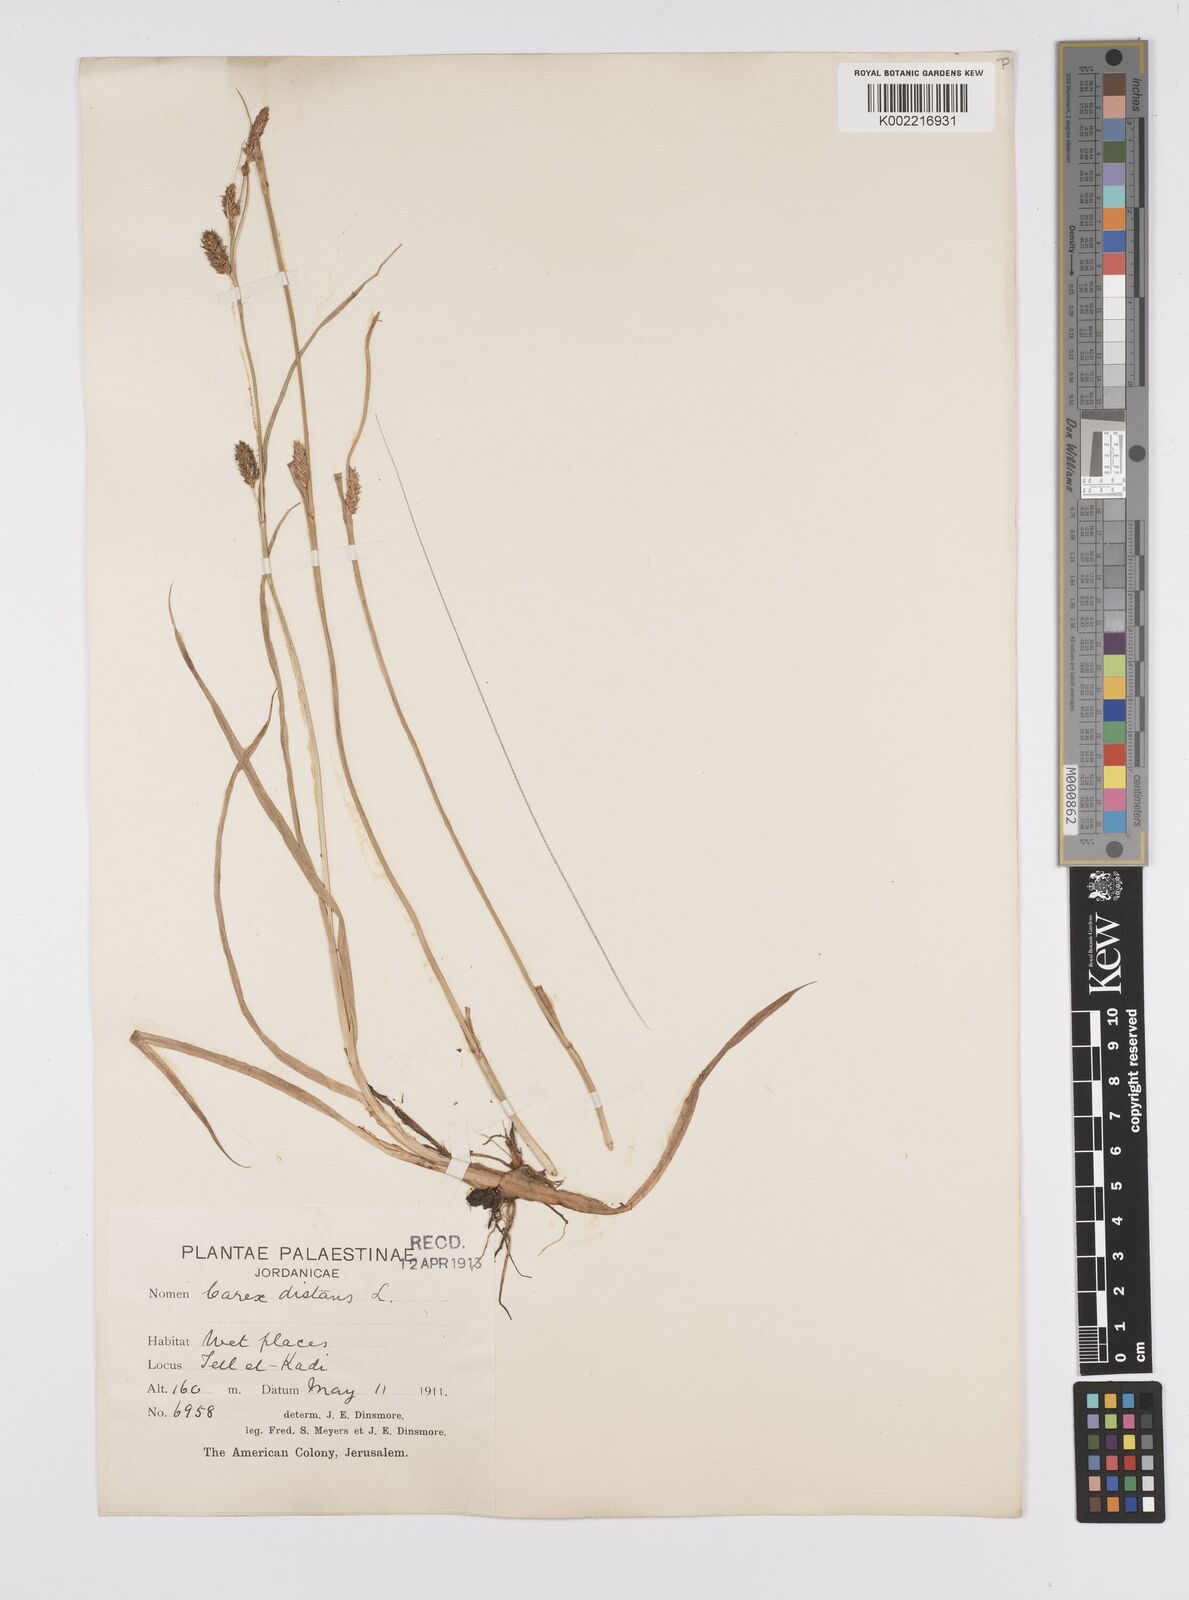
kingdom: Plantae
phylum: Tracheophyta
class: Liliopsida
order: Poales
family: Cyperaceae
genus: Carex
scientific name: Carex distans
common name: Distant sedge
